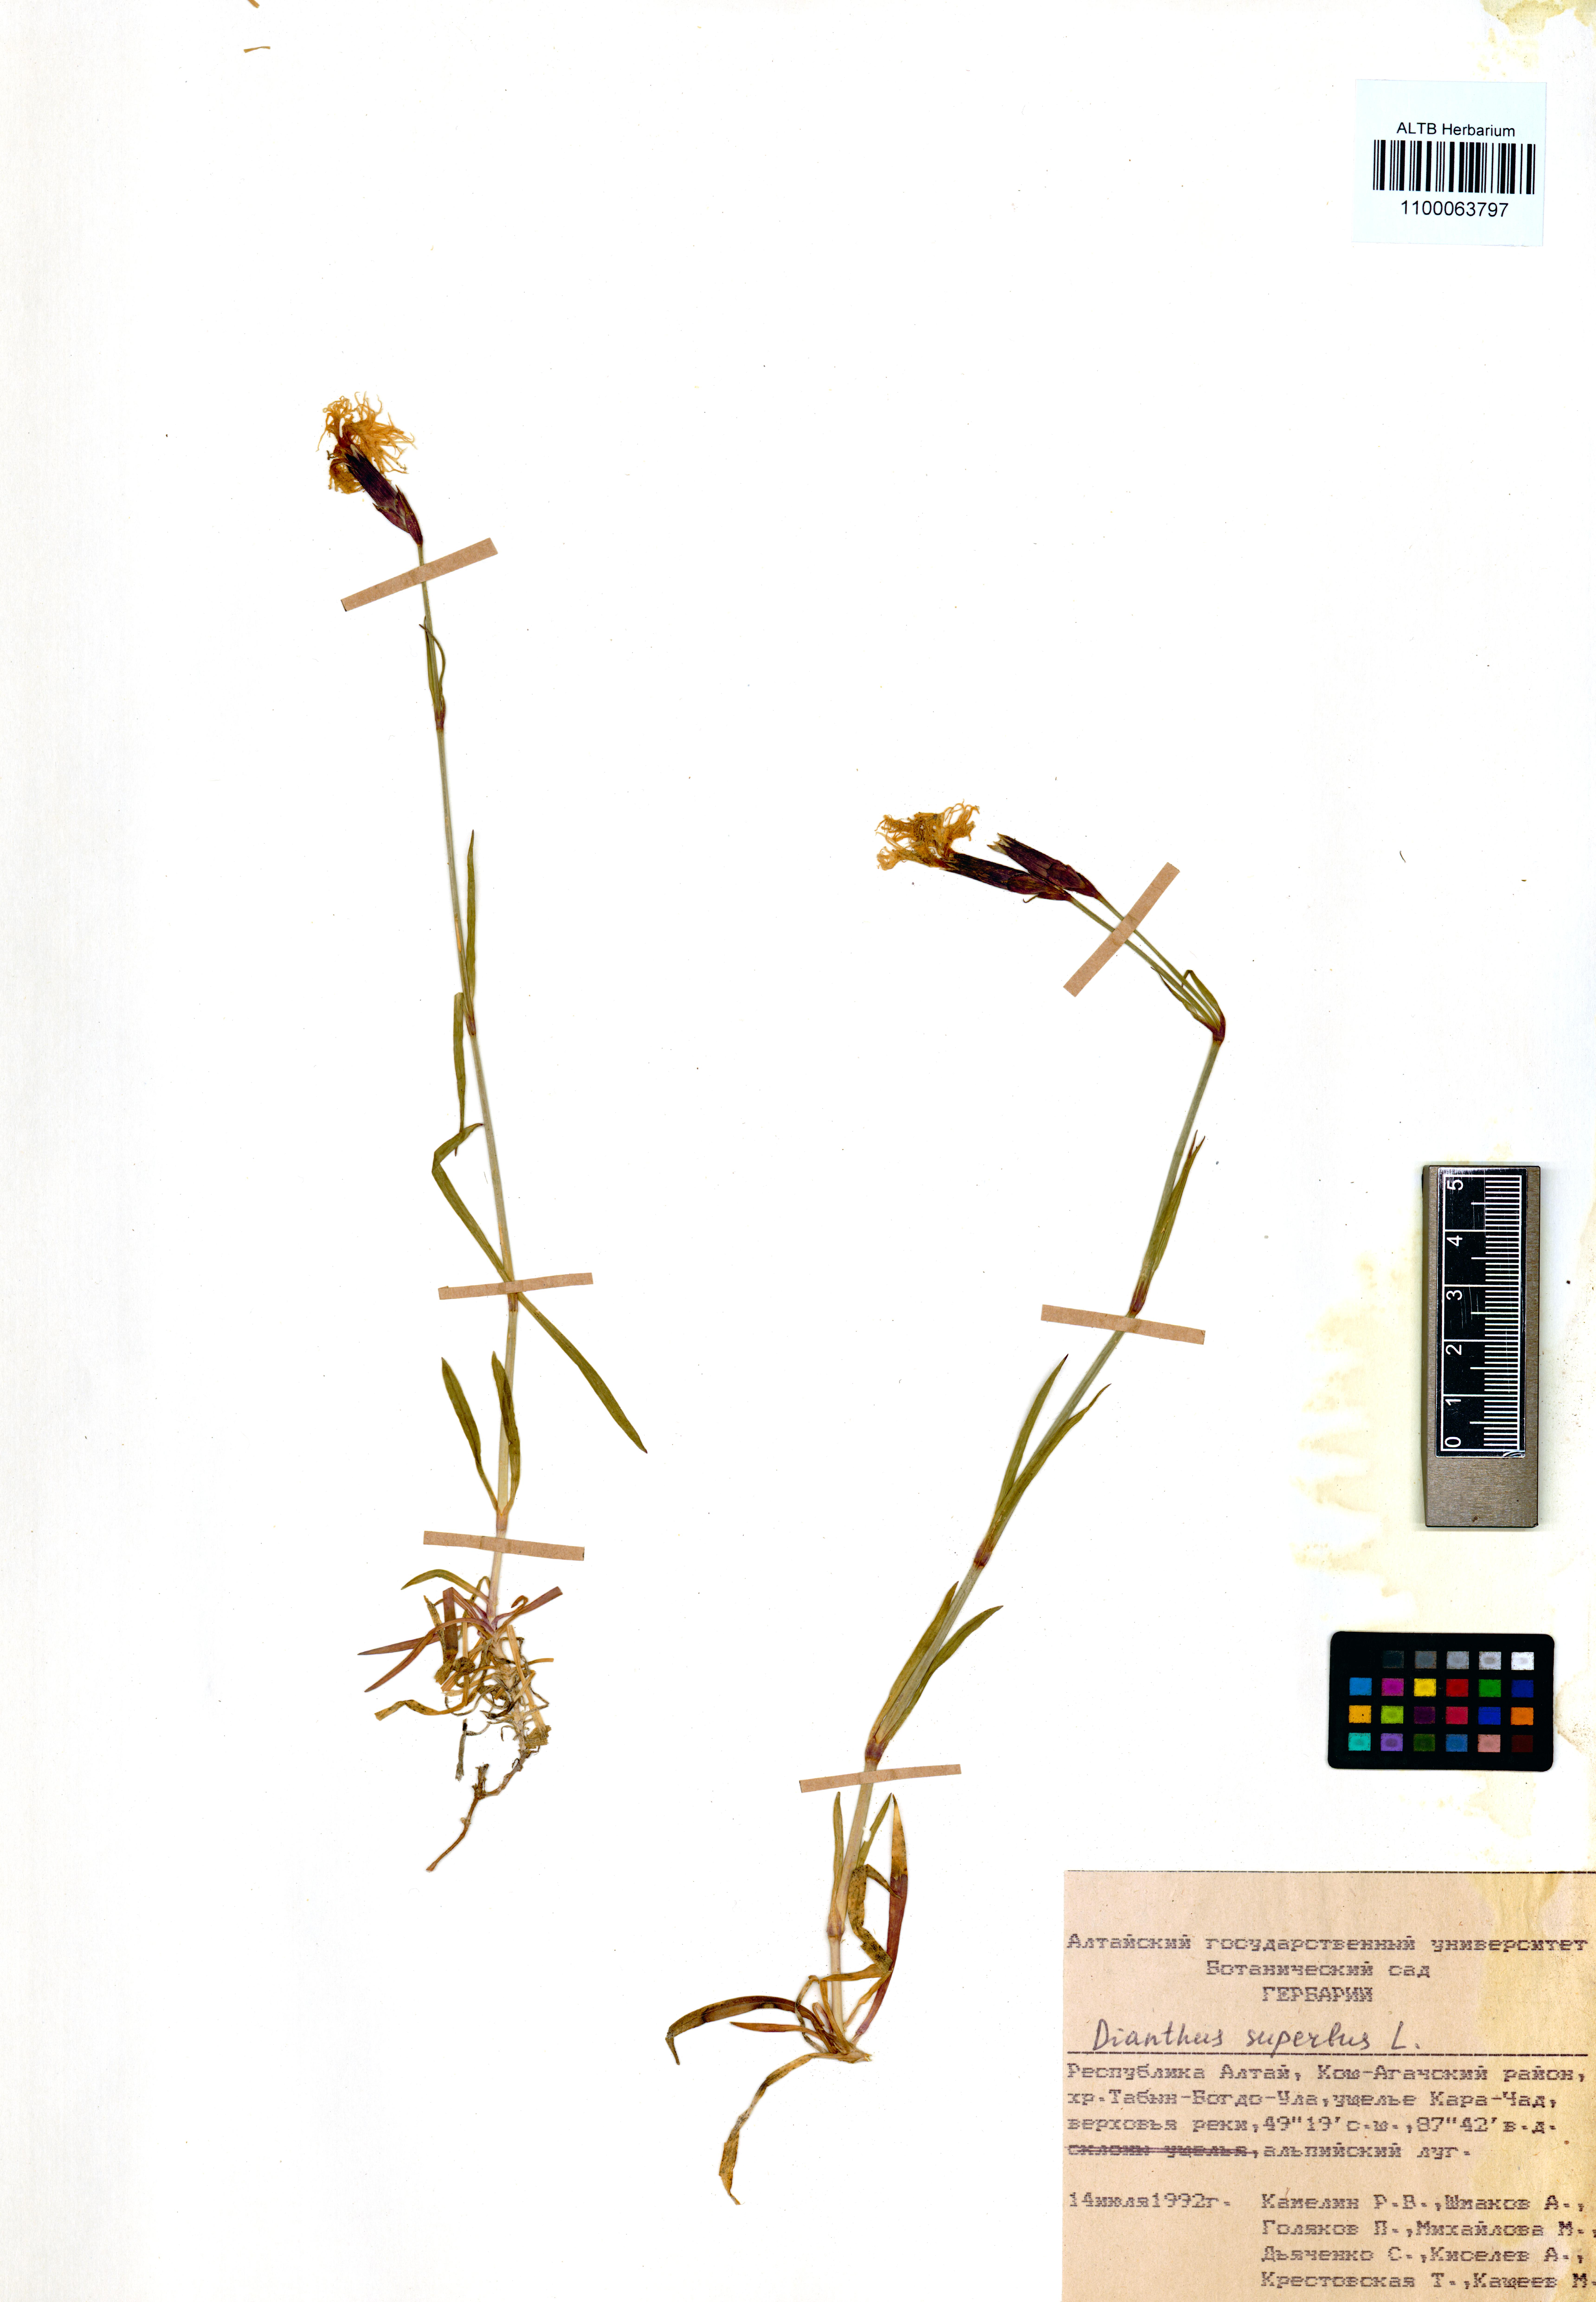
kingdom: Plantae
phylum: Tracheophyta
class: Magnoliopsida
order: Caryophyllales
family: Caryophyllaceae
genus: Dianthus
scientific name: Dianthus superbus
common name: Fringed pink
